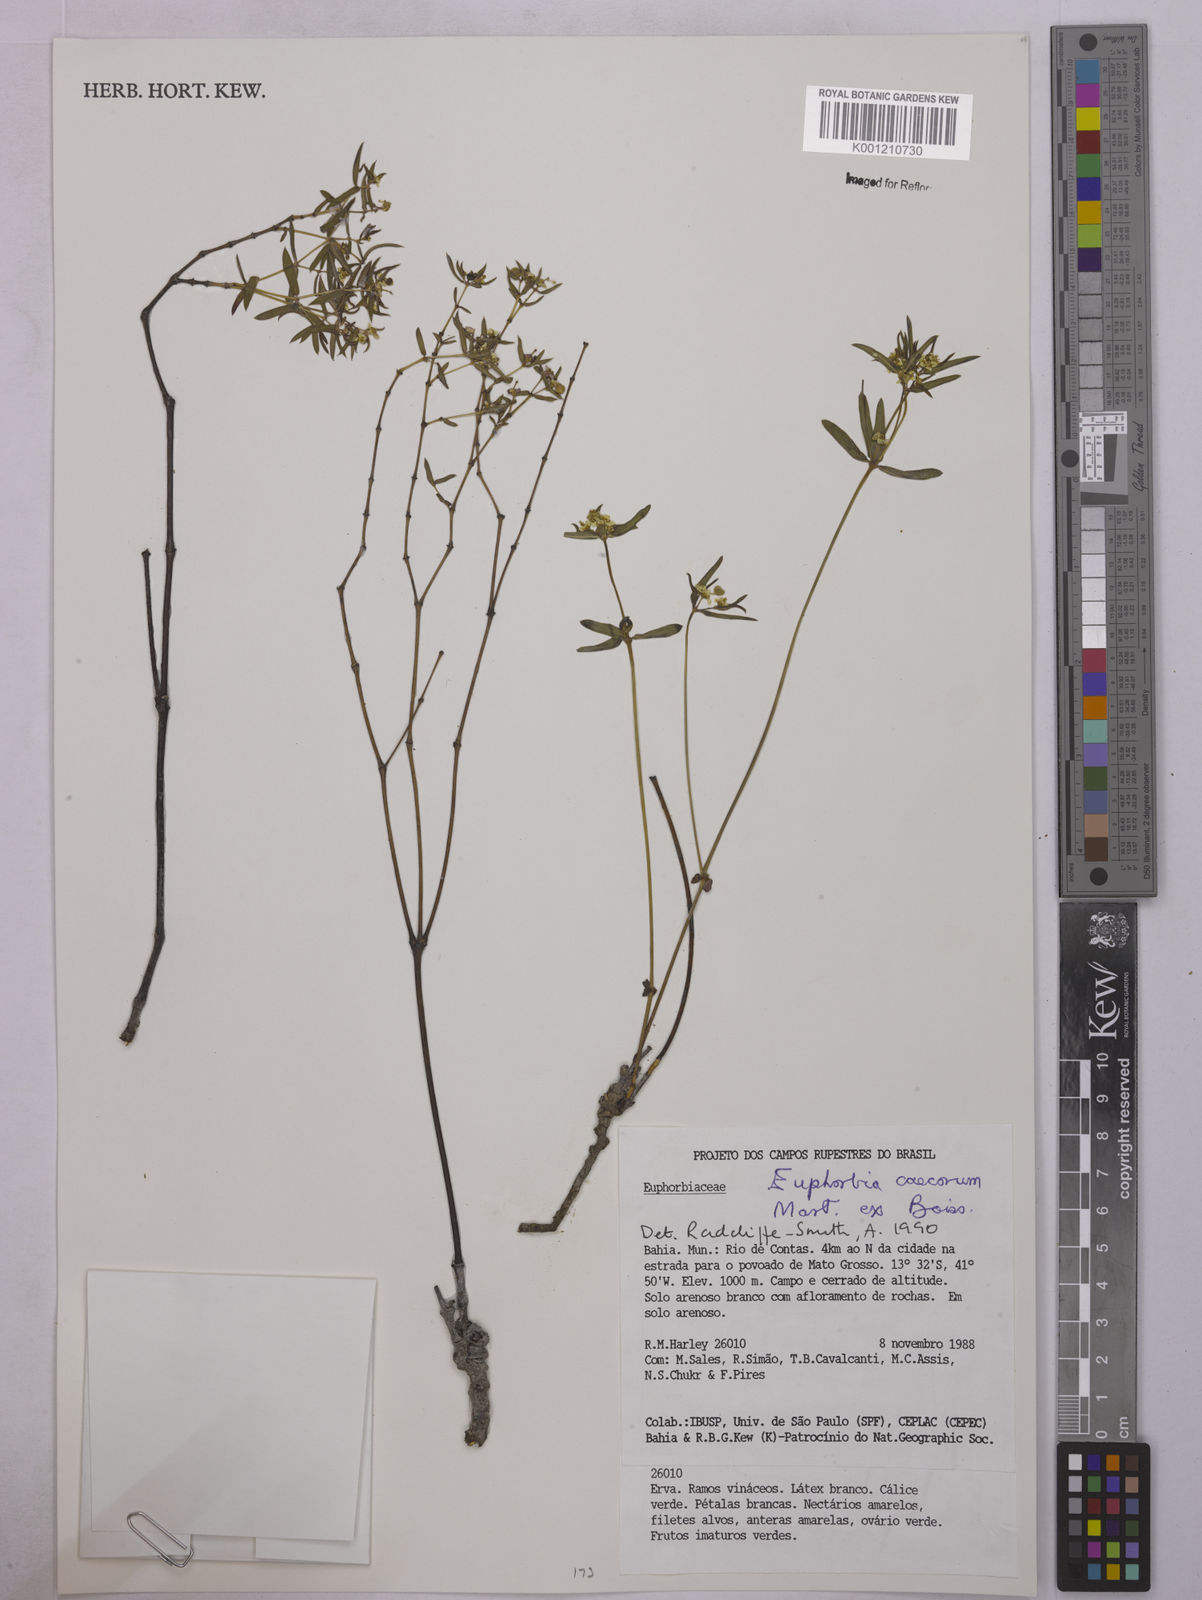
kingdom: Plantae
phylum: Tracheophyta
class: Magnoliopsida
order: Malpighiales
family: Euphorbiaceae
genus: Euphorbia
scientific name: Euphorbia potentilloides
